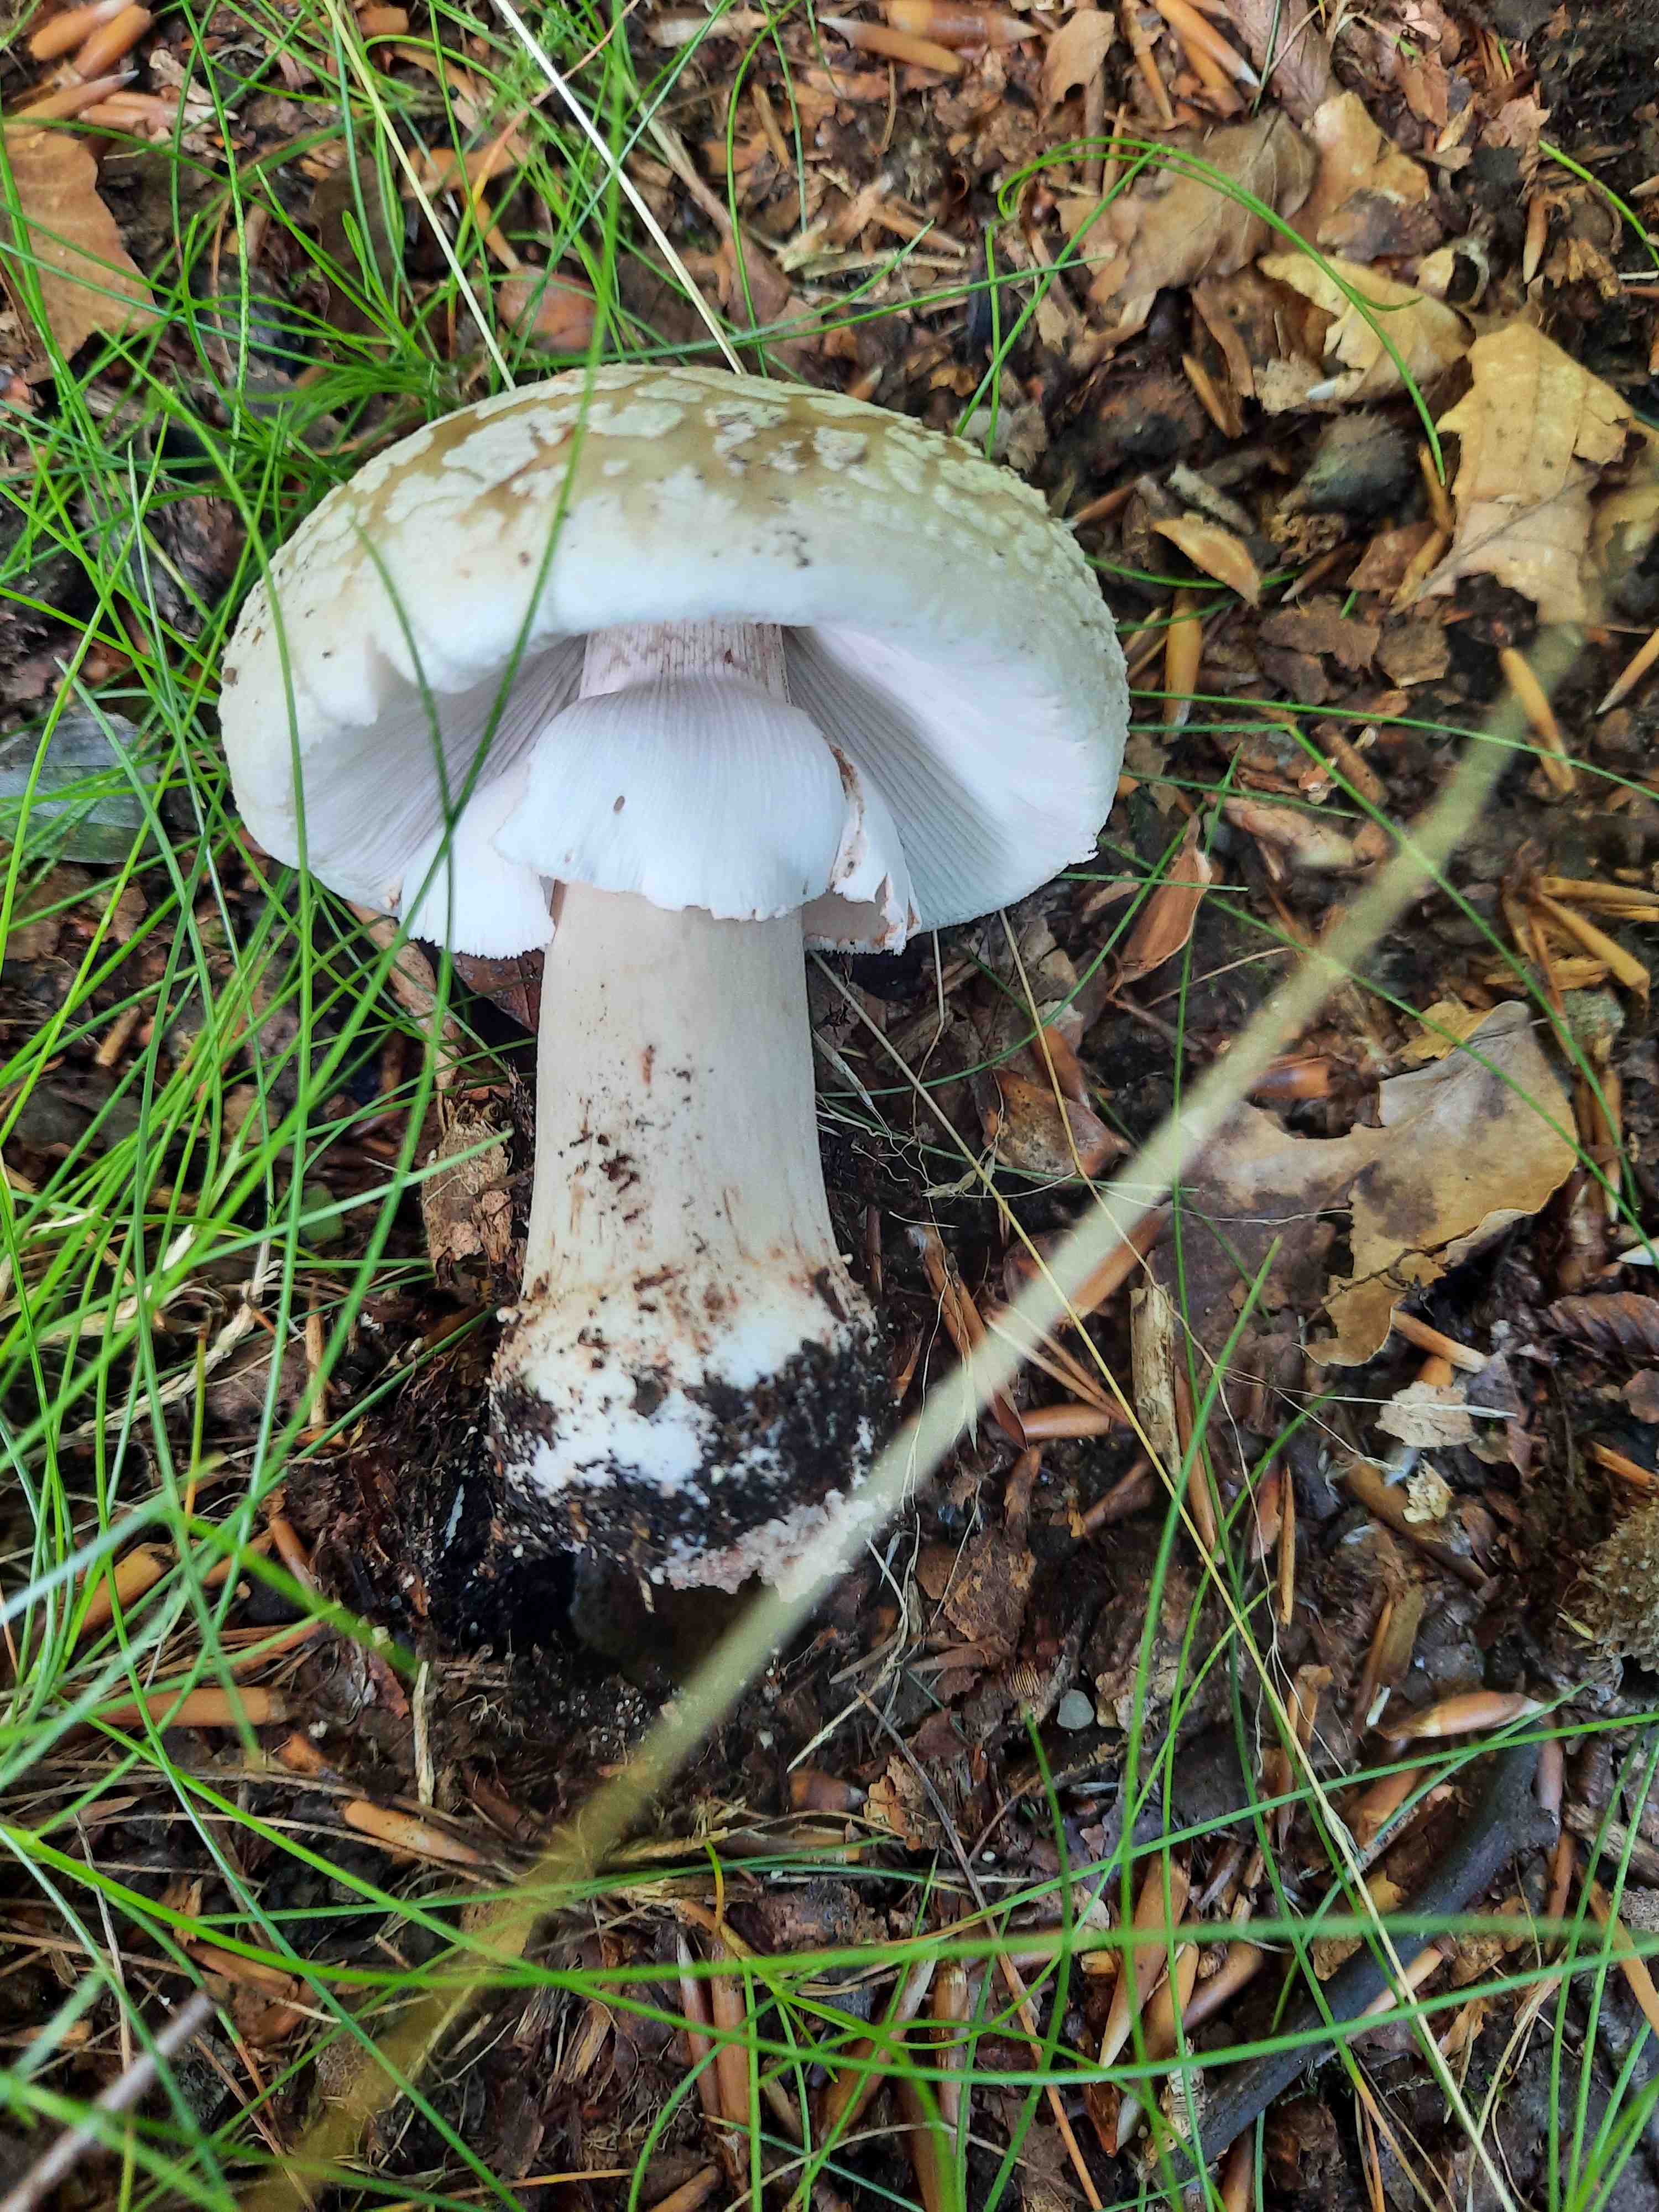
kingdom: Fungi
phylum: Basidiomycota
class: Agaricomycetes
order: Agaricales
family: Amanitaceae
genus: Amanita
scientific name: Amanita rubescens
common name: rødmende fluesvamp
